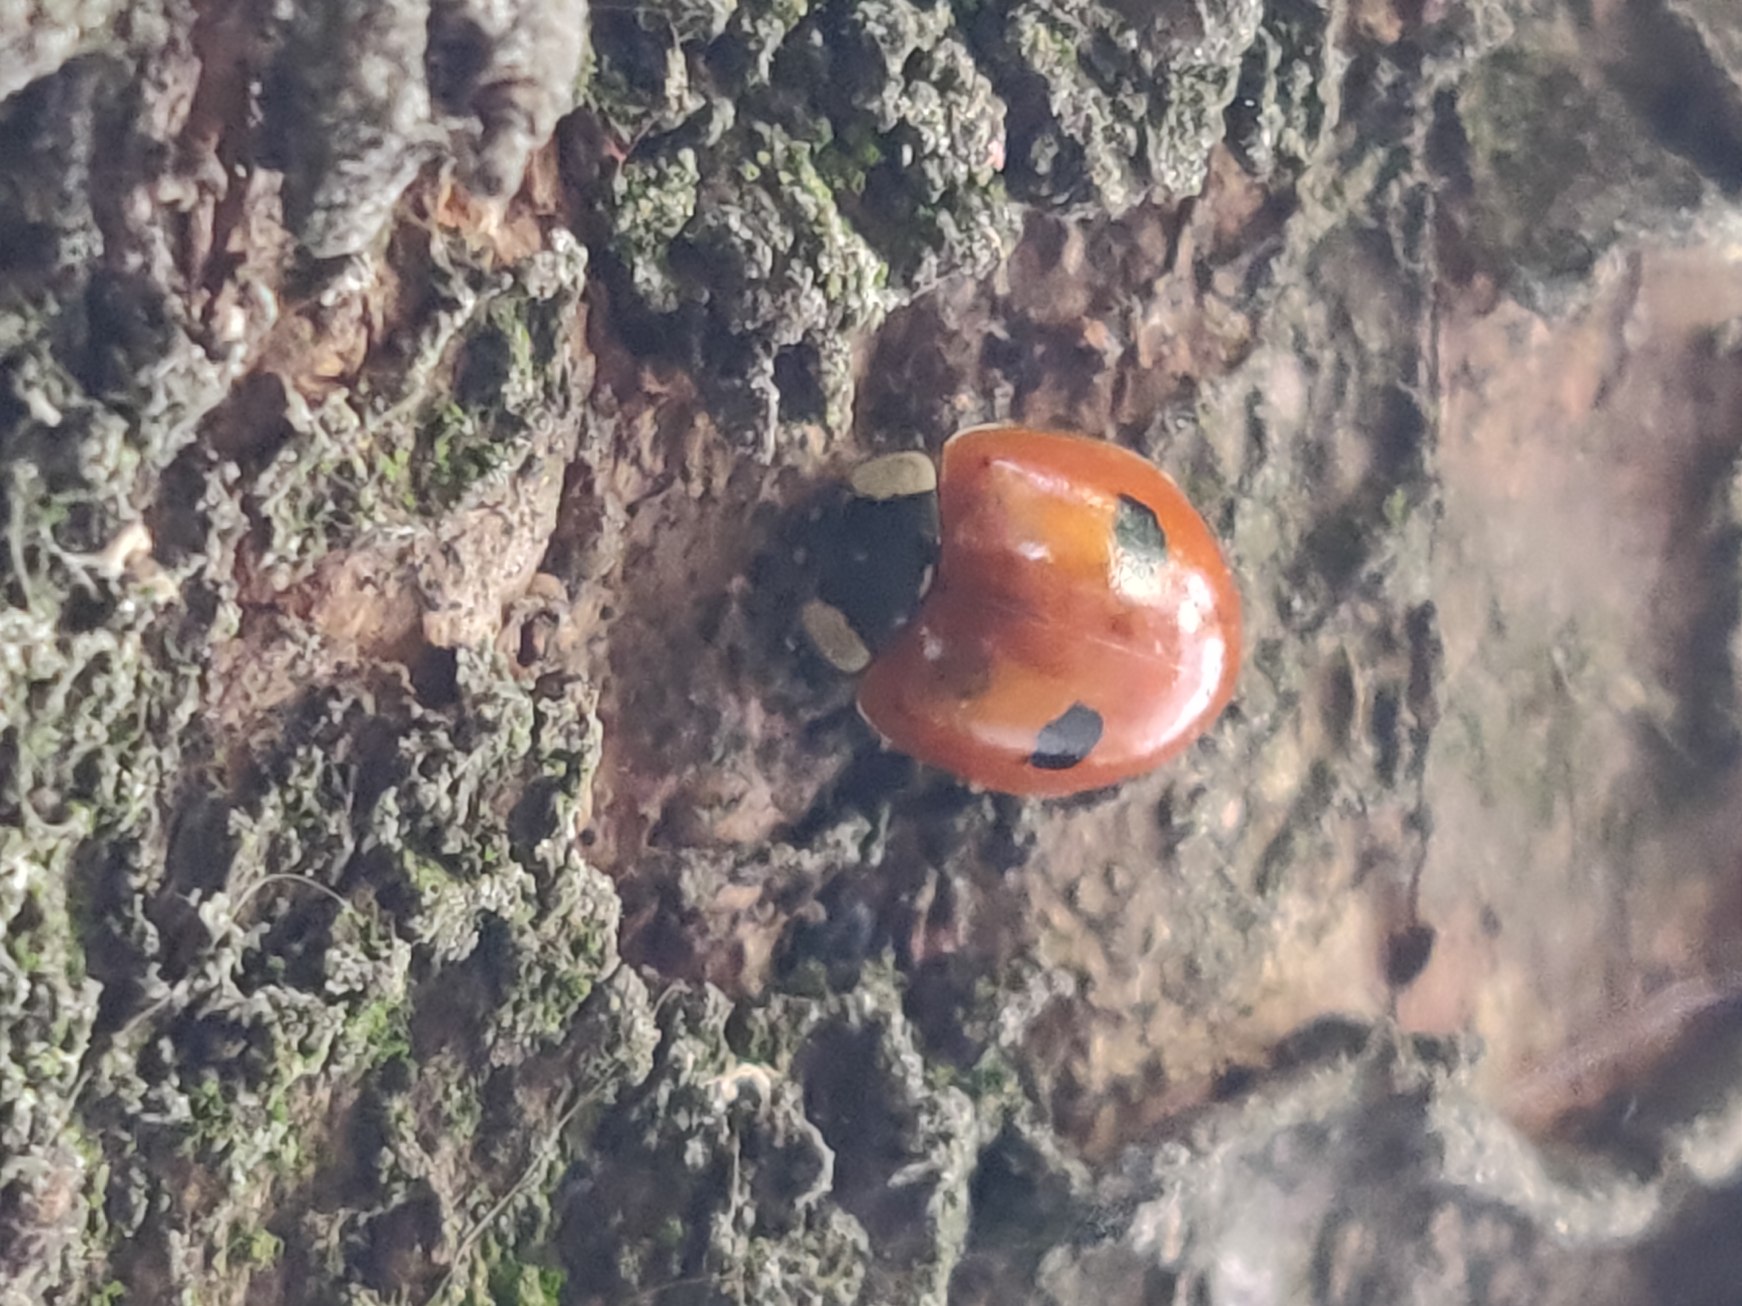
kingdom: Animalia
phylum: Arthropoda
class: Insecta
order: Coleoptera
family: Coccinellidae
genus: Adalia
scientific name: Adalia bipunctata
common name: Toplettet mariehøne
